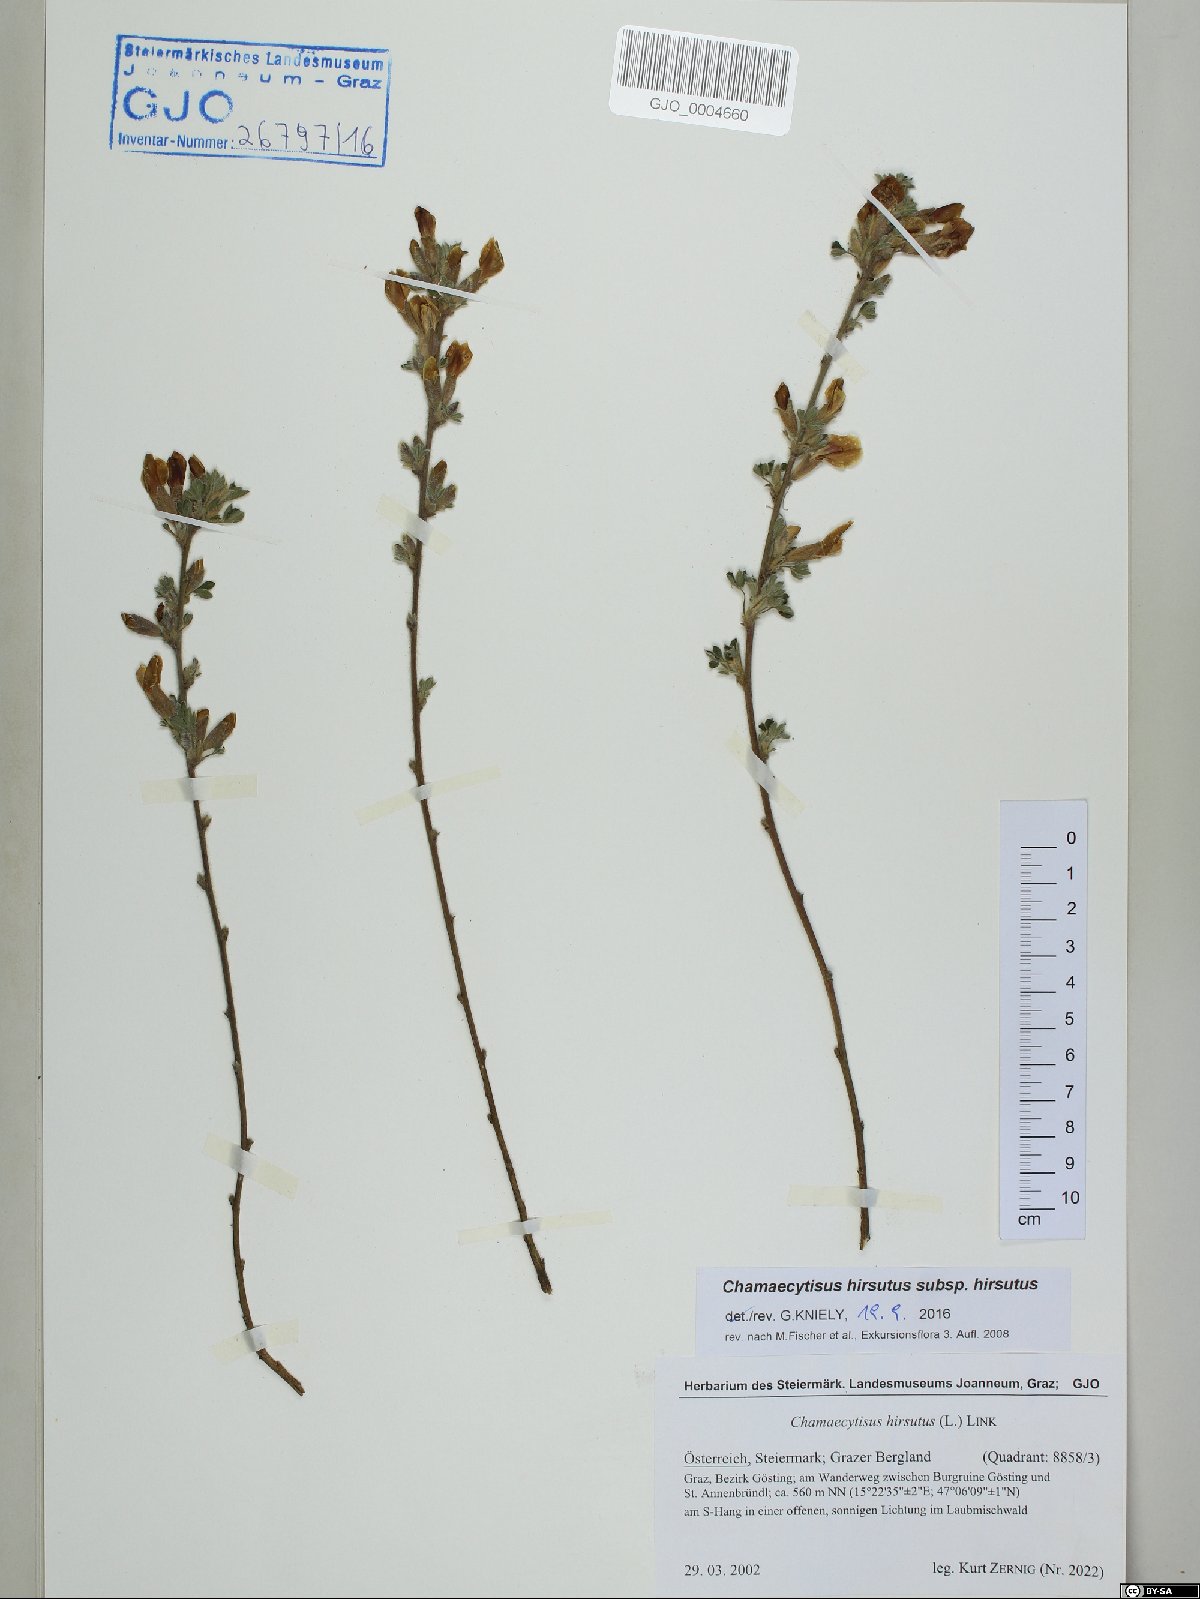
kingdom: Plantae
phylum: Tracheophyta
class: Magnoliopsida
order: Fabales
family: Fabaceae
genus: Chamaecytisus
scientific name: Chamaecytisus hirsutus
